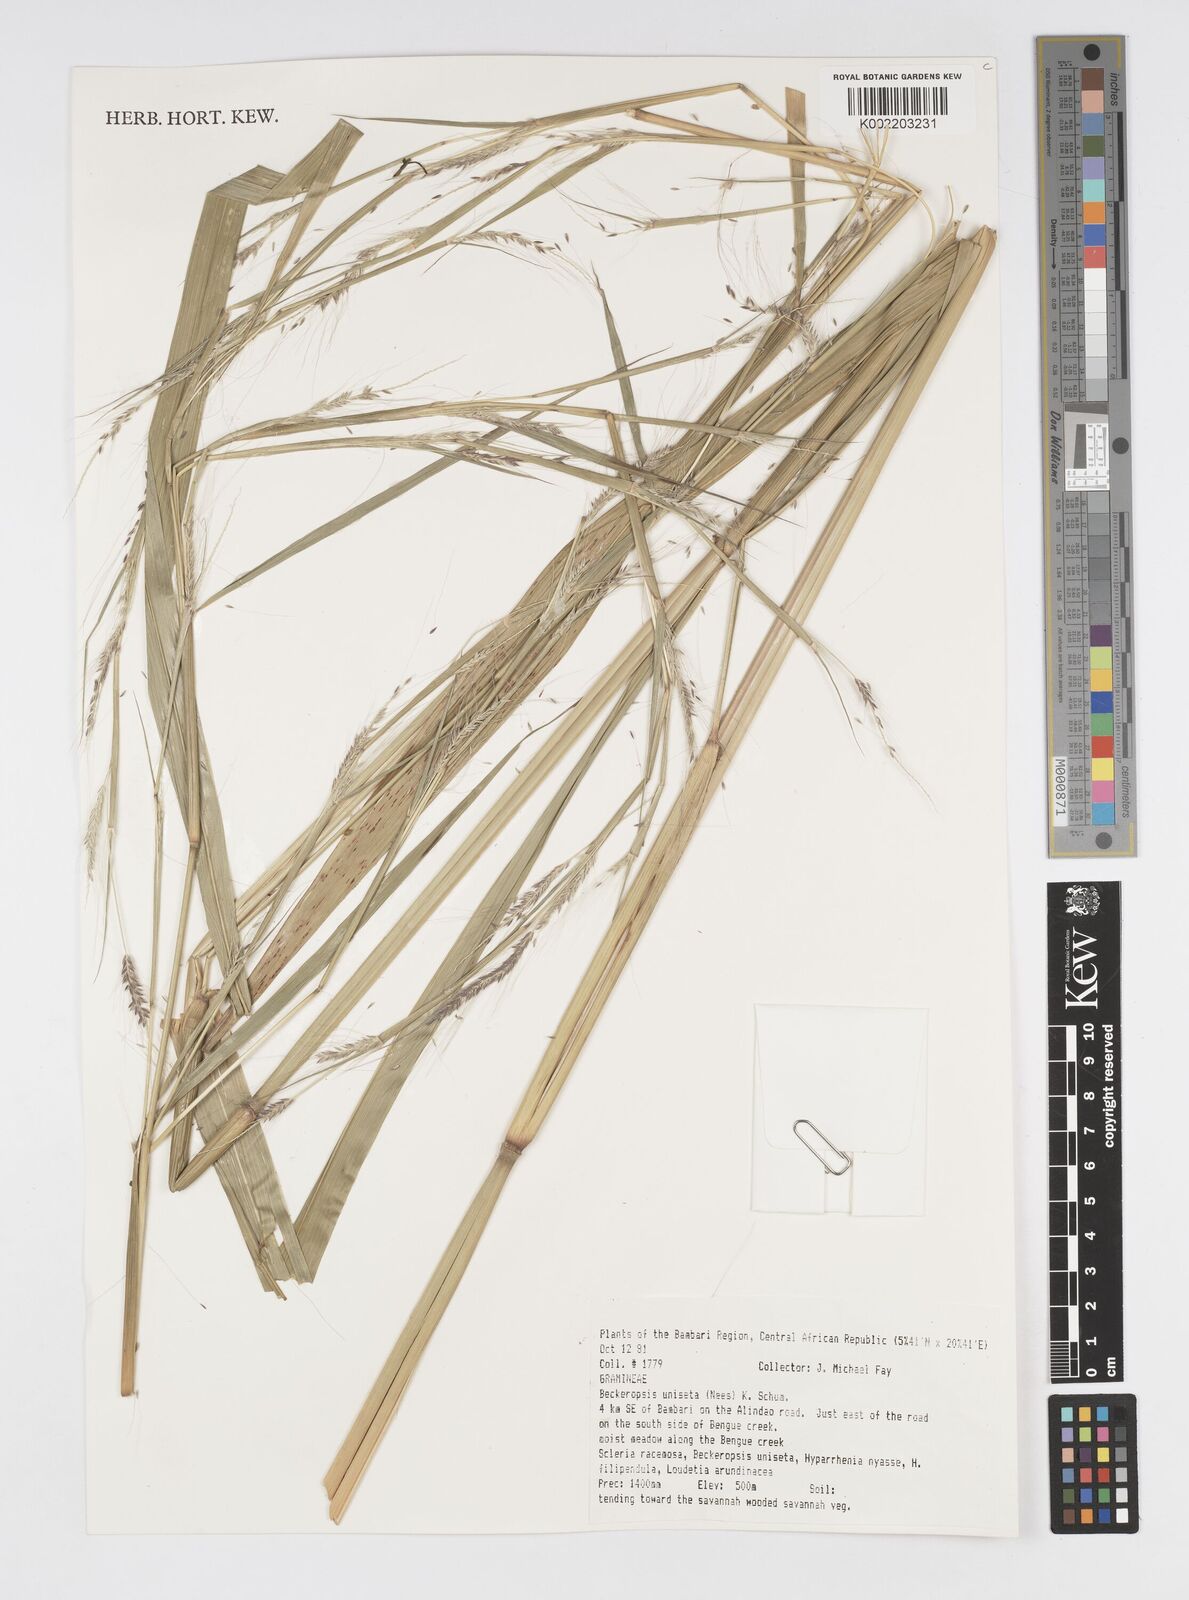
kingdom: Plantae
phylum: Tracheophyta
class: Liliopsida
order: Poales
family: Poaceae
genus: Cenchrus
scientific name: Cenchrus unisetus
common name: Natal grass
